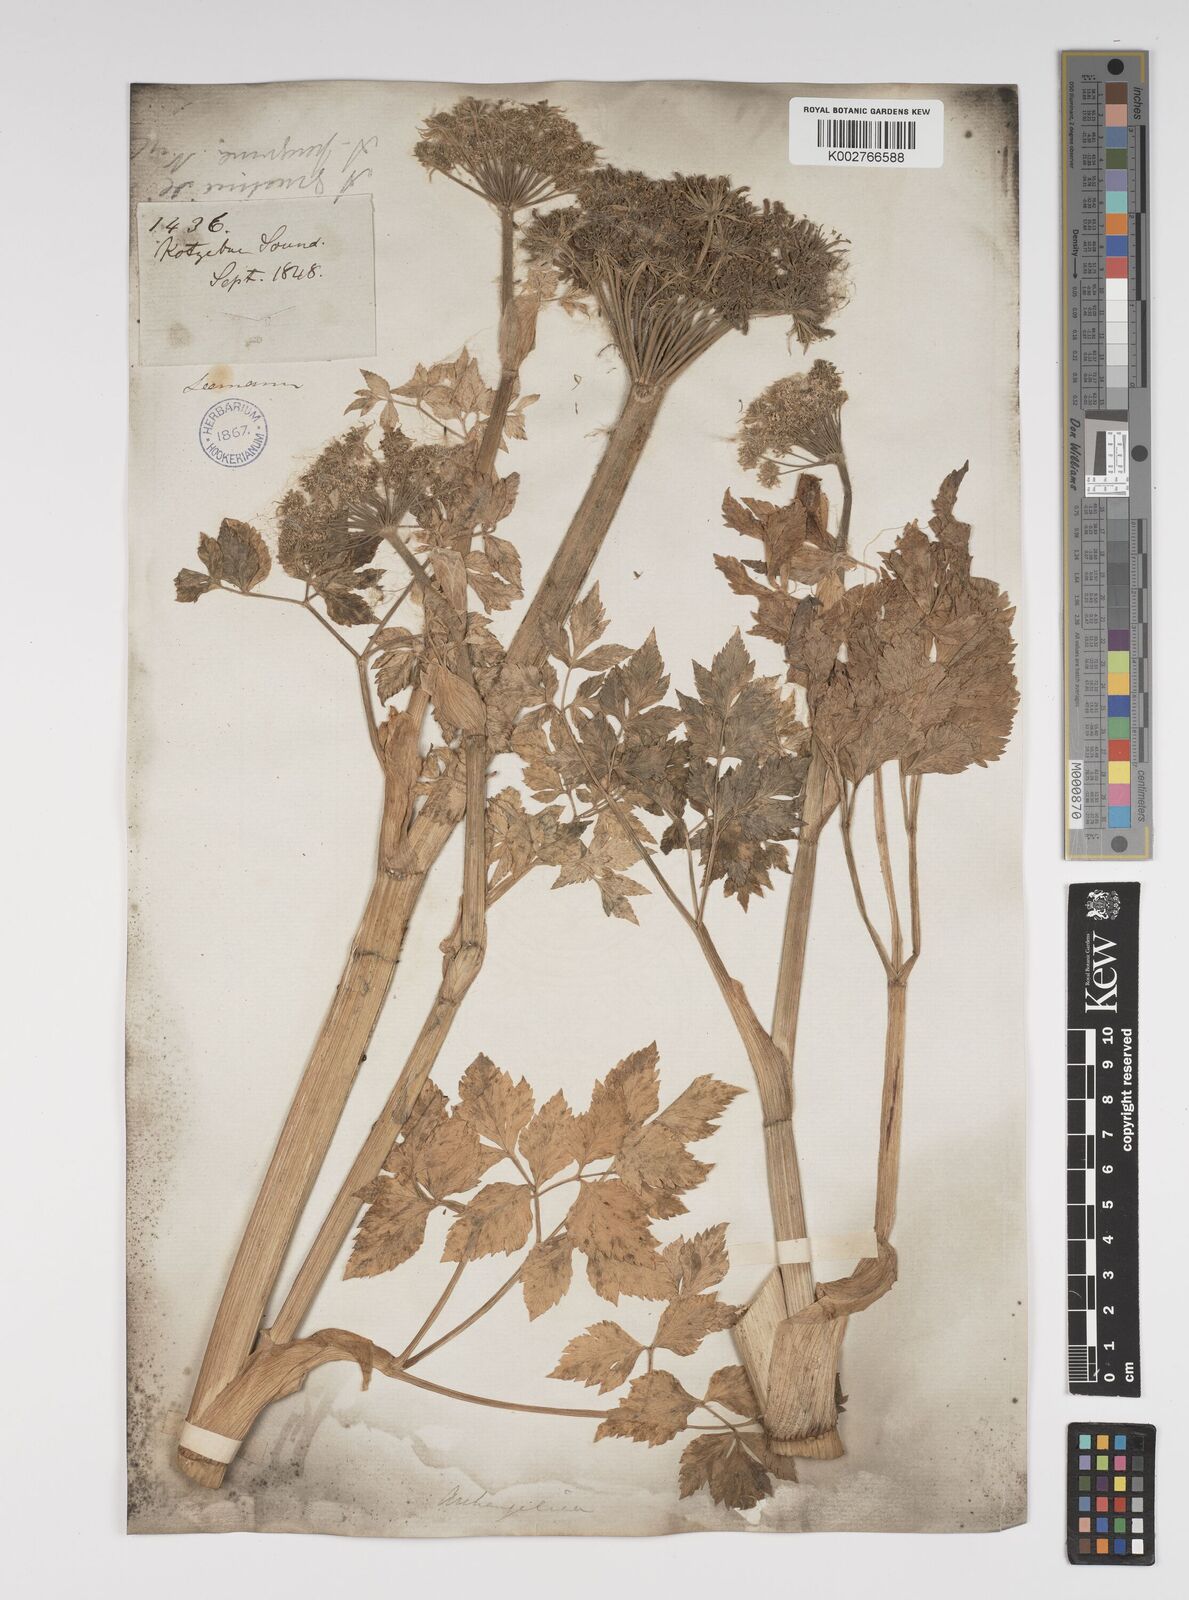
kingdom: Plantae
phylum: Tracheophyta
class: Magnoliopsida
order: Apiales
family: Apiaceae
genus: Angelica
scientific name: Angelica lucida
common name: Seabeach angelica
